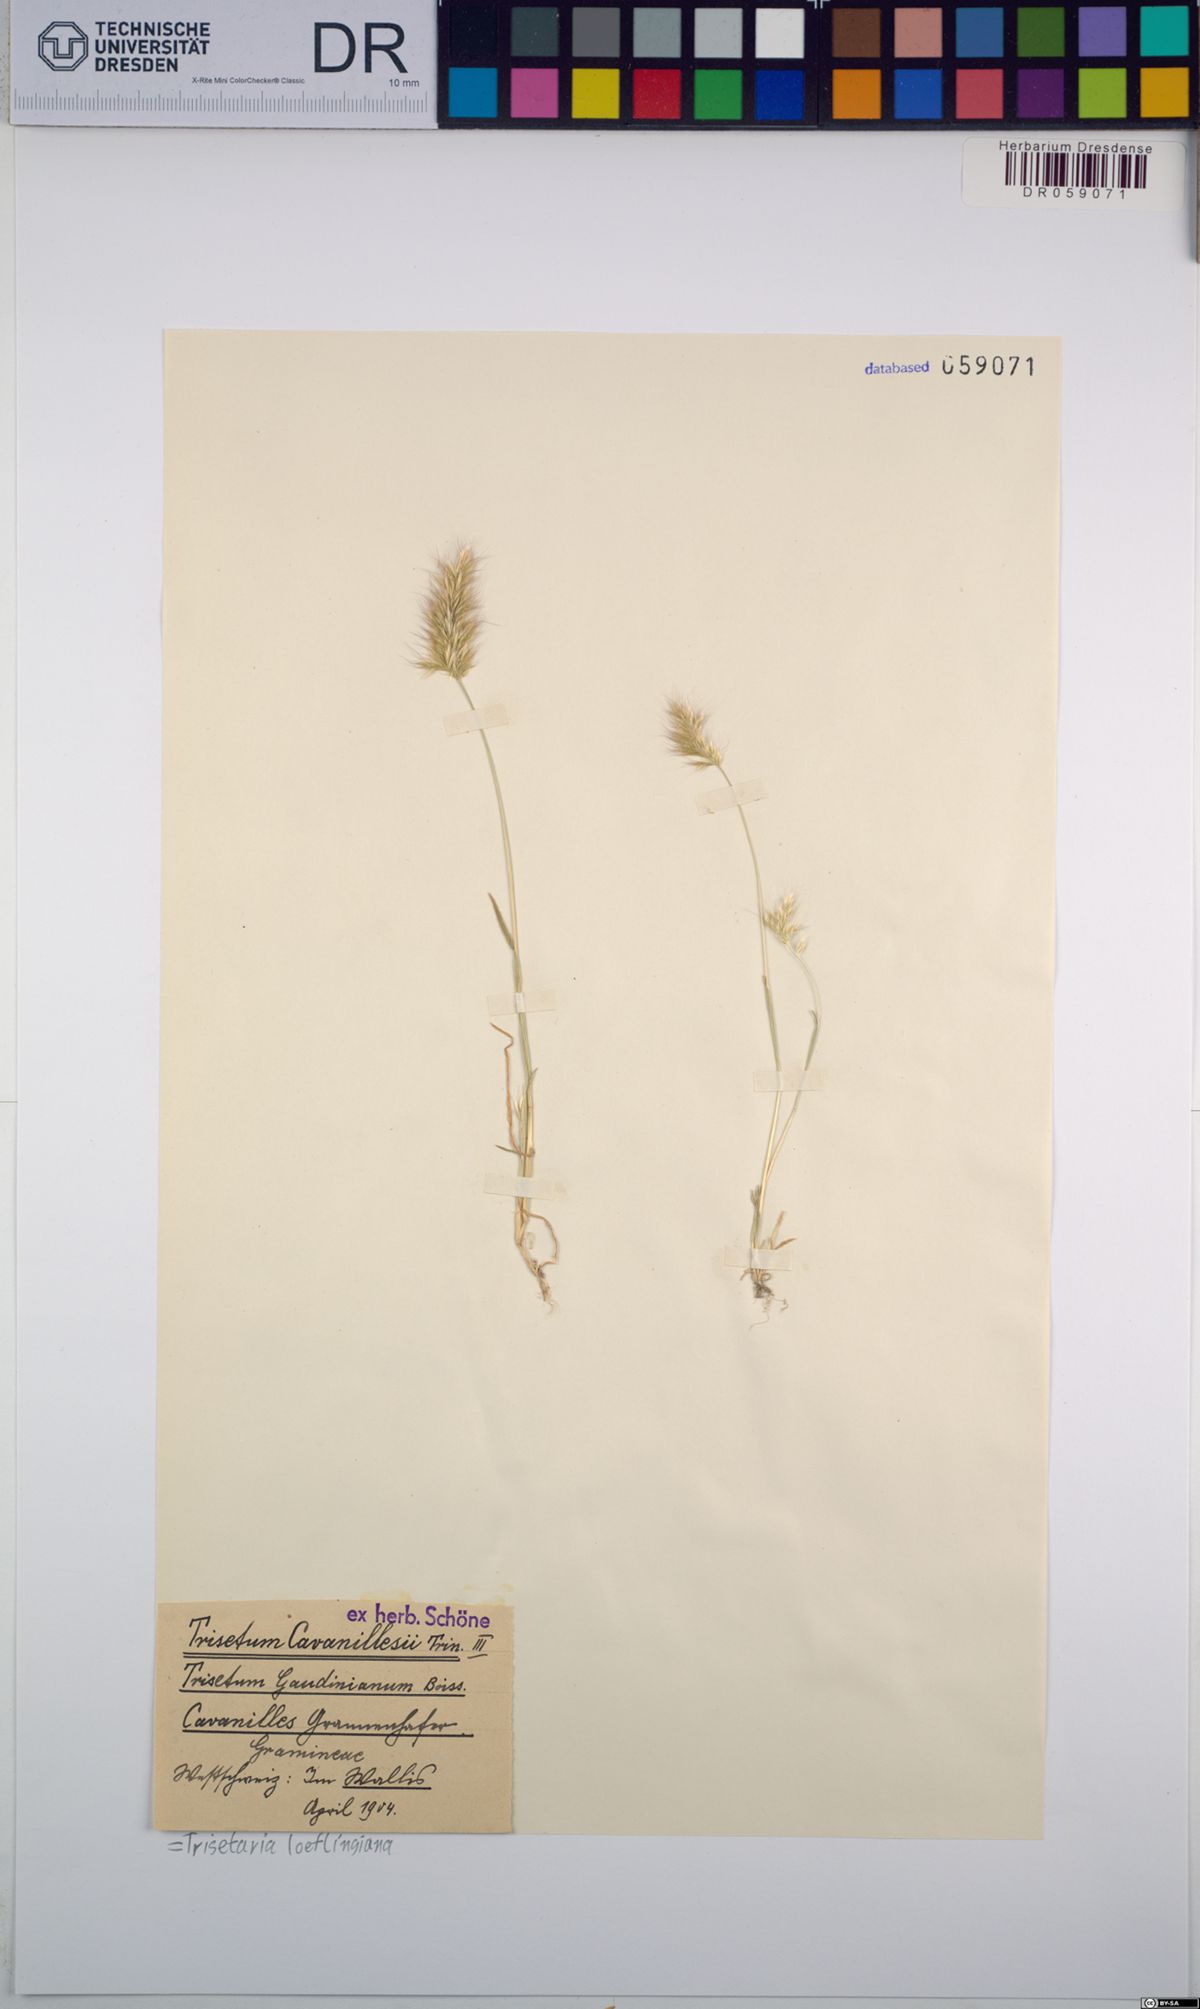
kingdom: Plantae
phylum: Tracheophyta
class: Liliopsida
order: Poales
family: Poaceae
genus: Trisetaria
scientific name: Trisetaria loeflingiana
